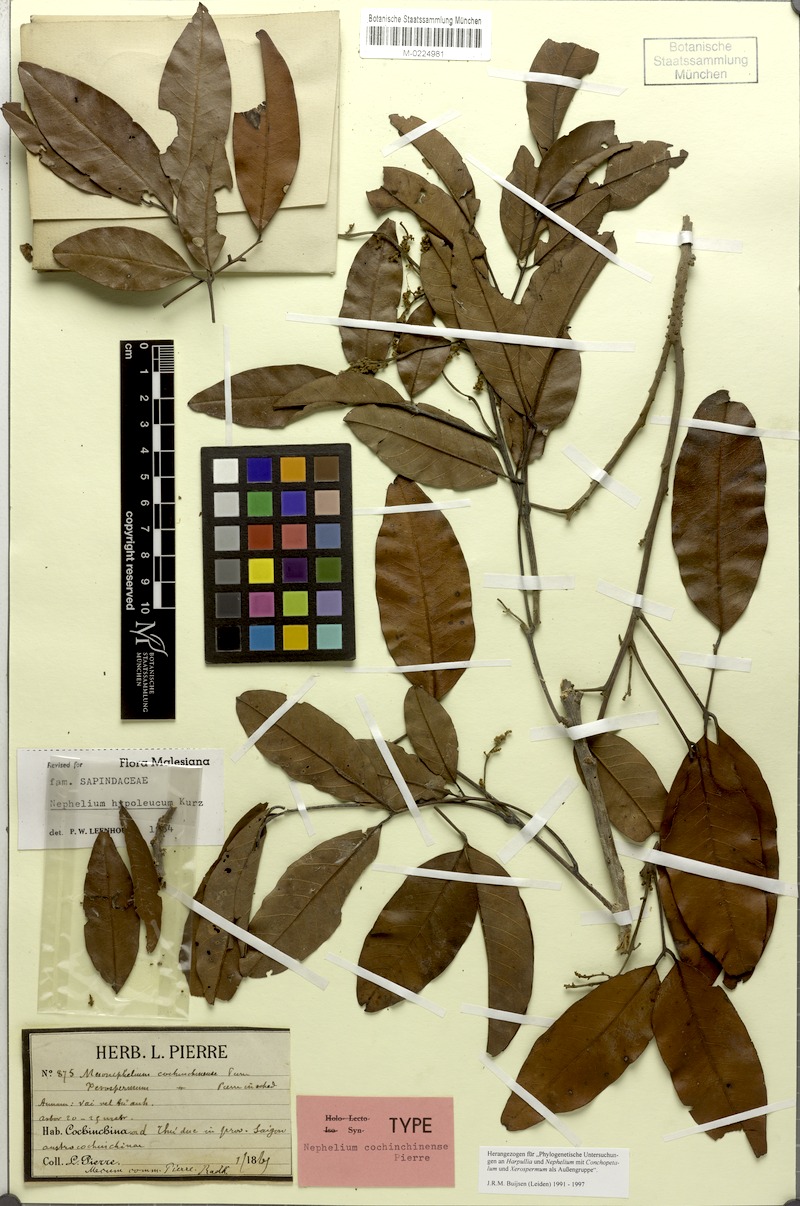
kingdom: Plantae
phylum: Tracheophyta
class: Magnoliopsida
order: Sapindales
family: Sapindaceae
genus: Nephelium
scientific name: Nephelium hypoleucum
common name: Korlan
